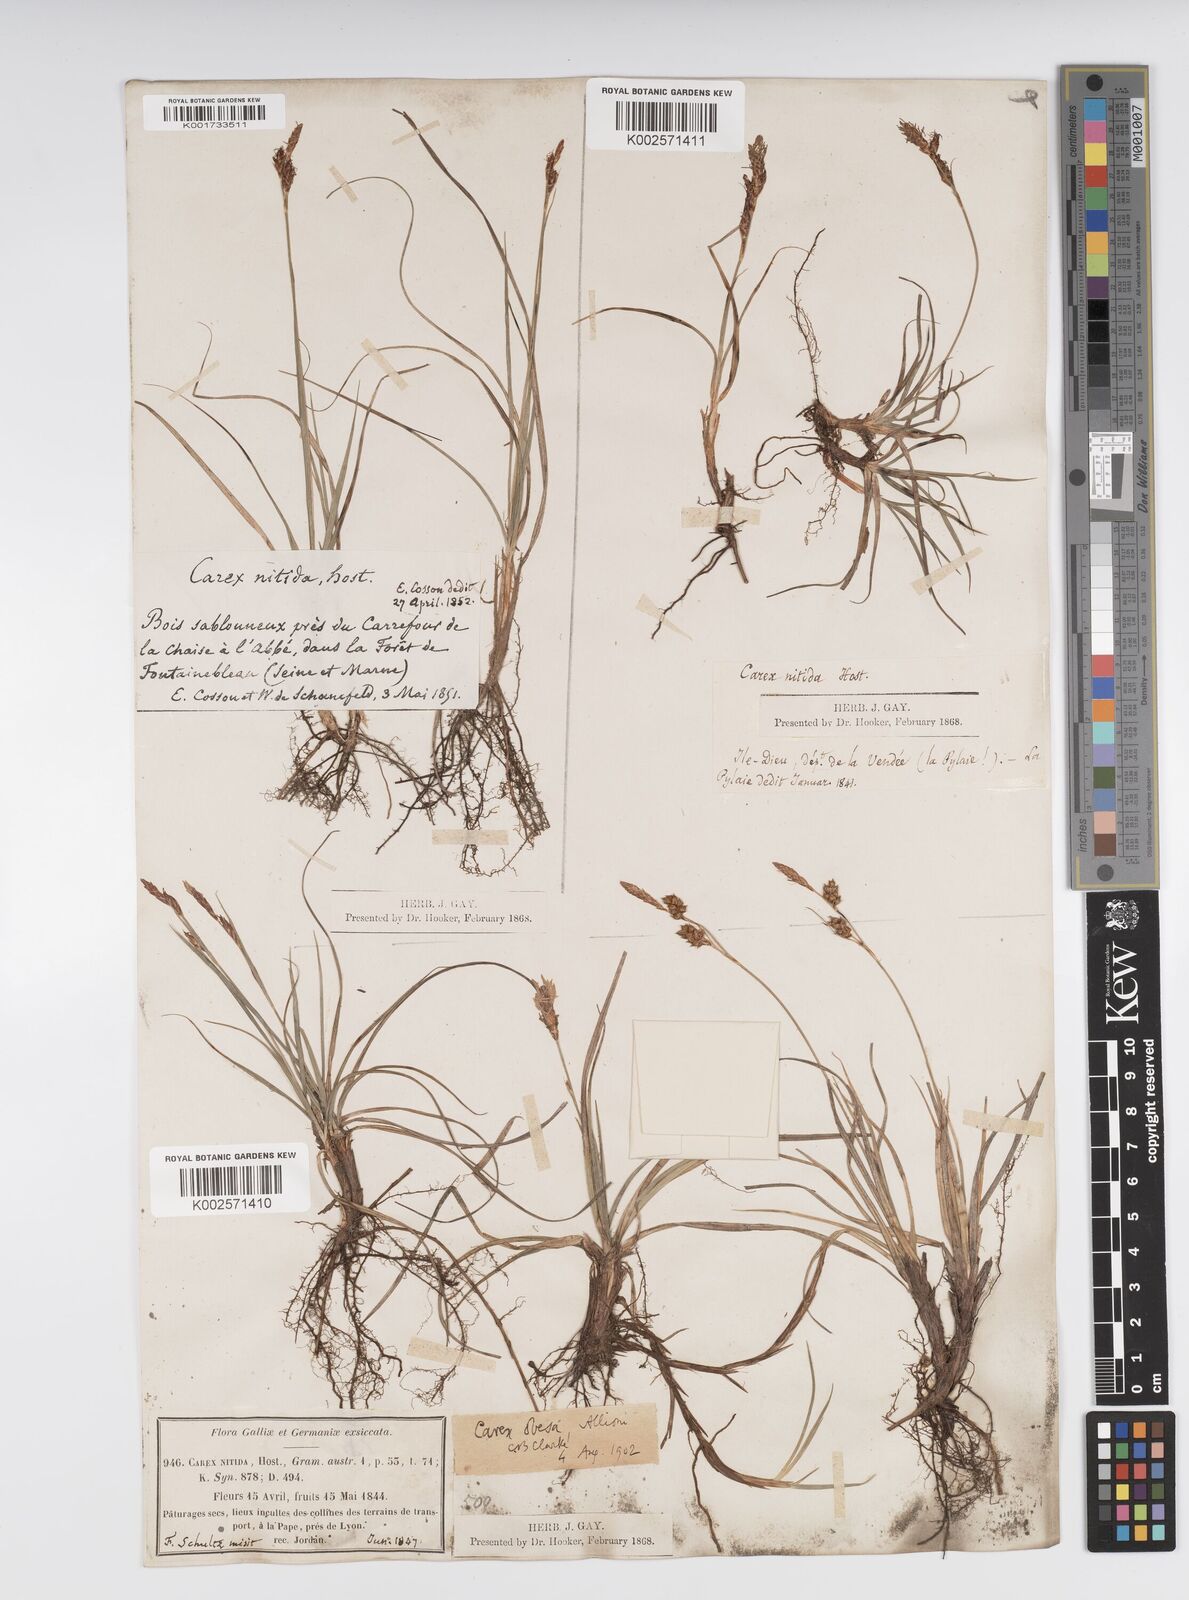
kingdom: Plantae
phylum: Tracheophyta
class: Liliopsida
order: Poales
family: Cyperaceae
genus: Carex
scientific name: Carex liparocarpos
